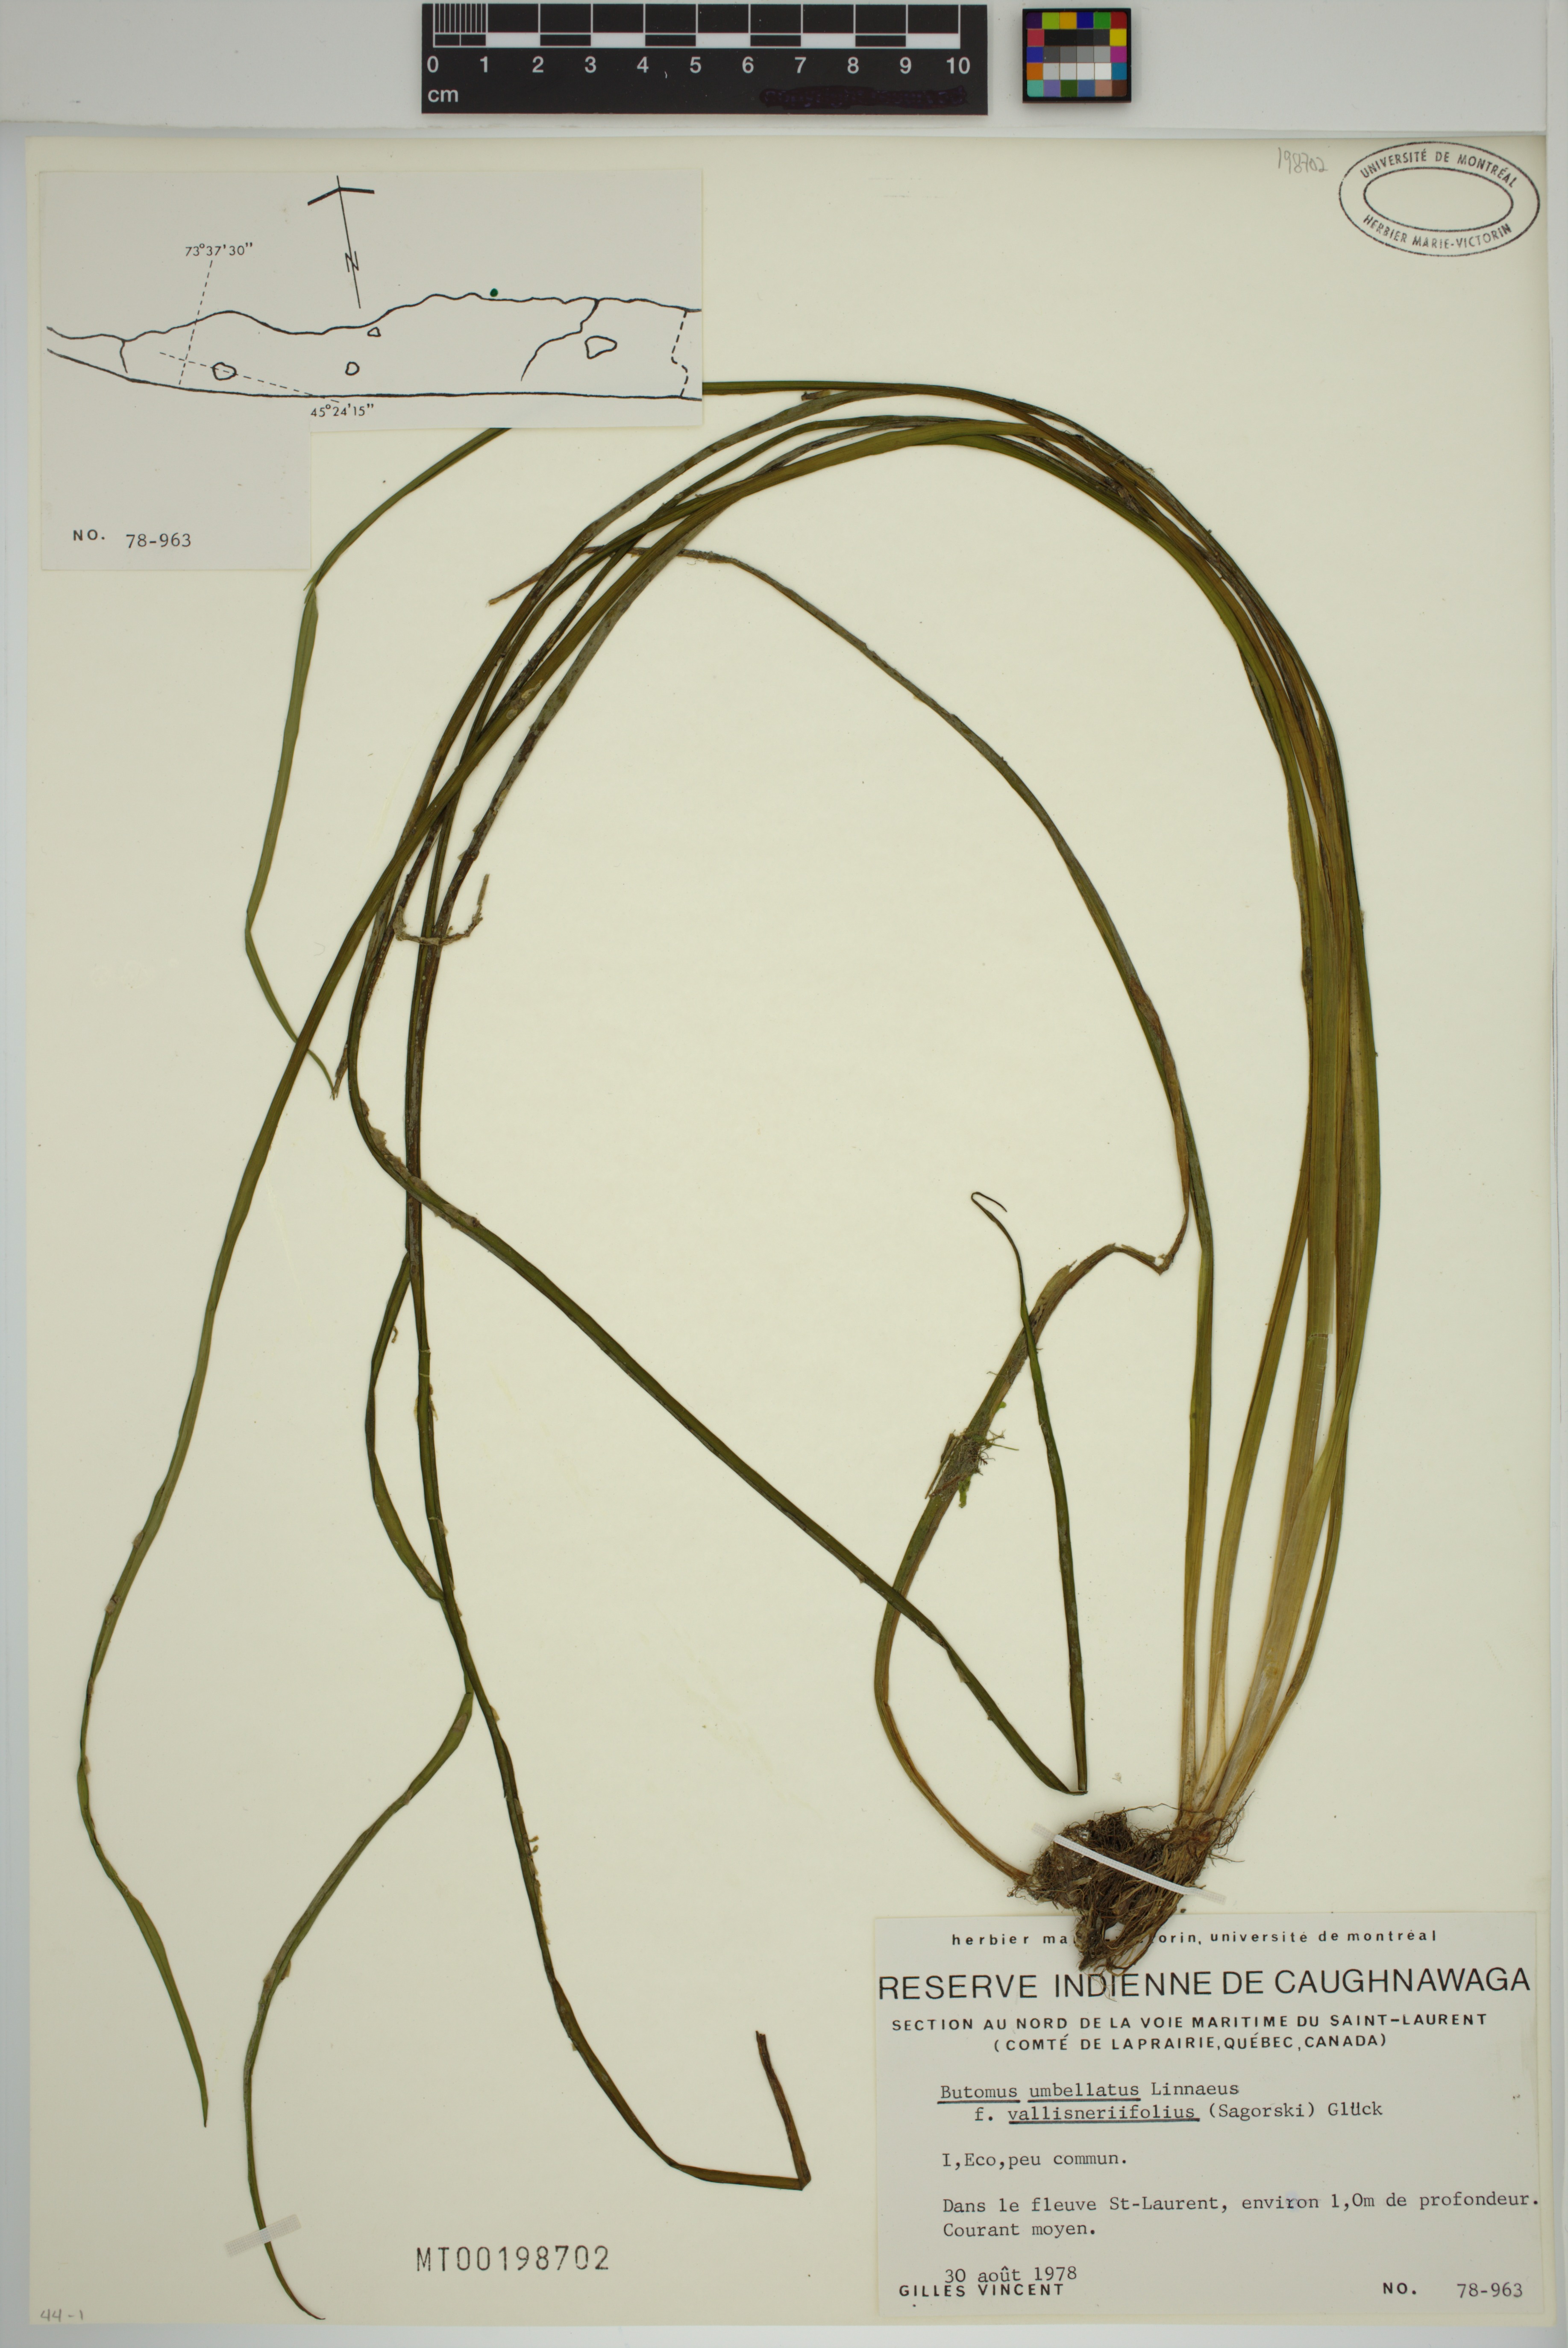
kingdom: Plantae
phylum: Tracheophyta
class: Liliopsida
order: Alismatales
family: Butomaceae
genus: Butomus
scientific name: Butomus umbellatus
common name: Flowering-rush
